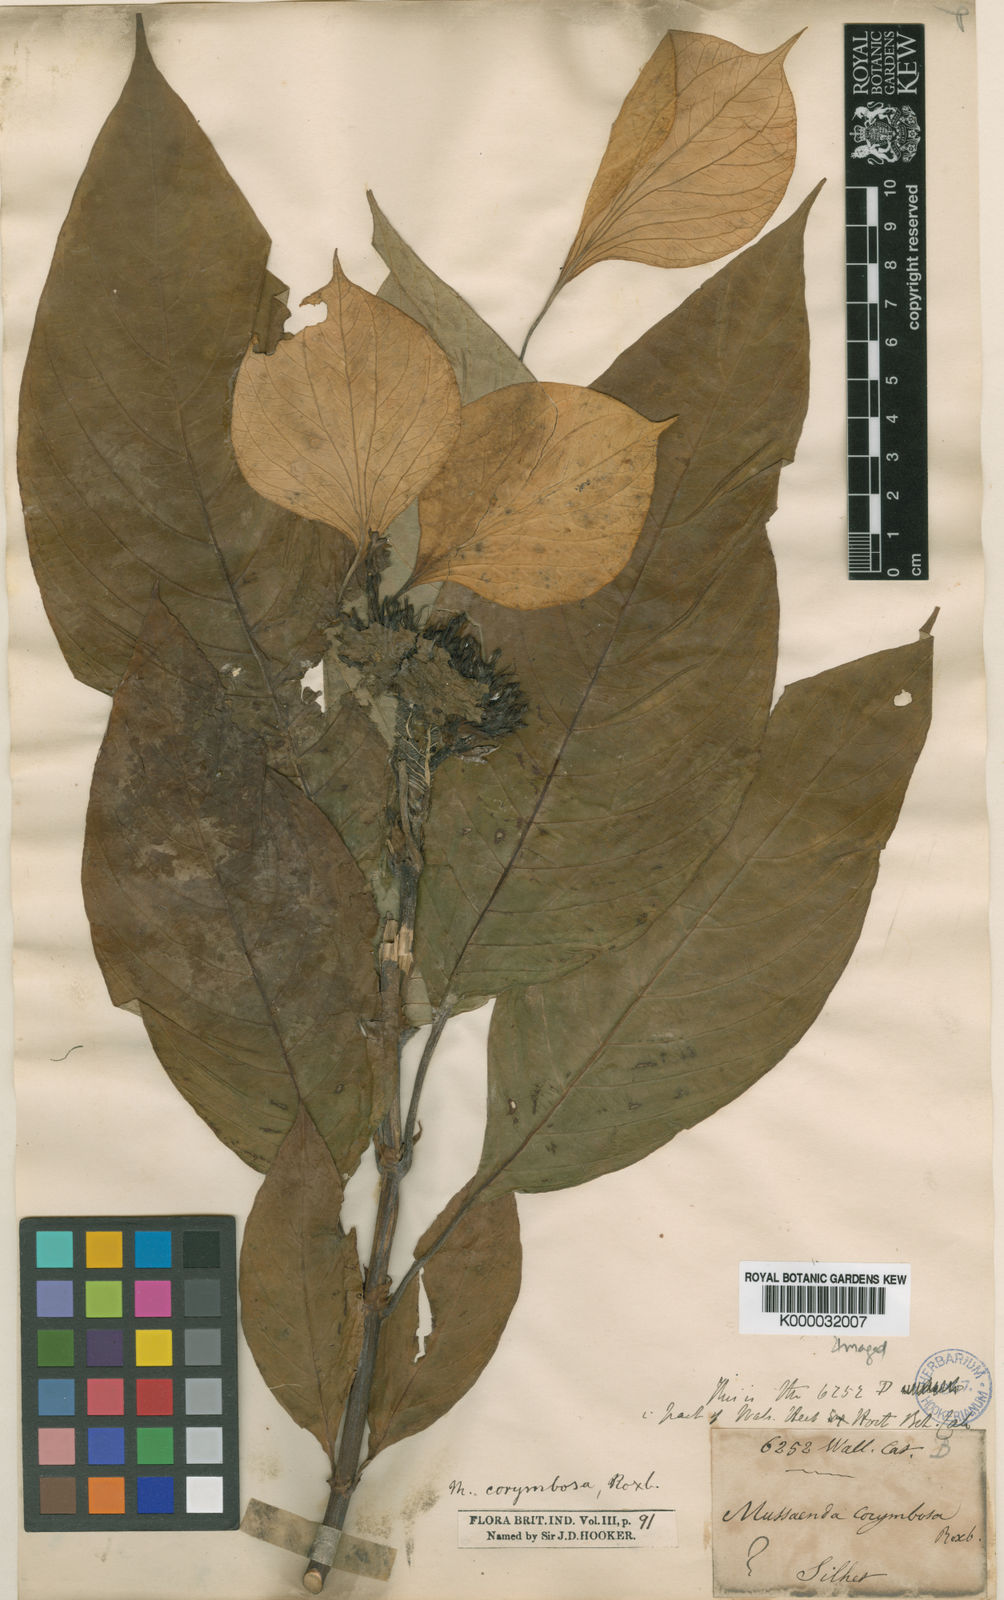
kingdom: Plantae
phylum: Tracheophyta
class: Magnoliopsida
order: Gentianales
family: Rubiaceae
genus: Mussaenda
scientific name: Mussaenda corymbosa
